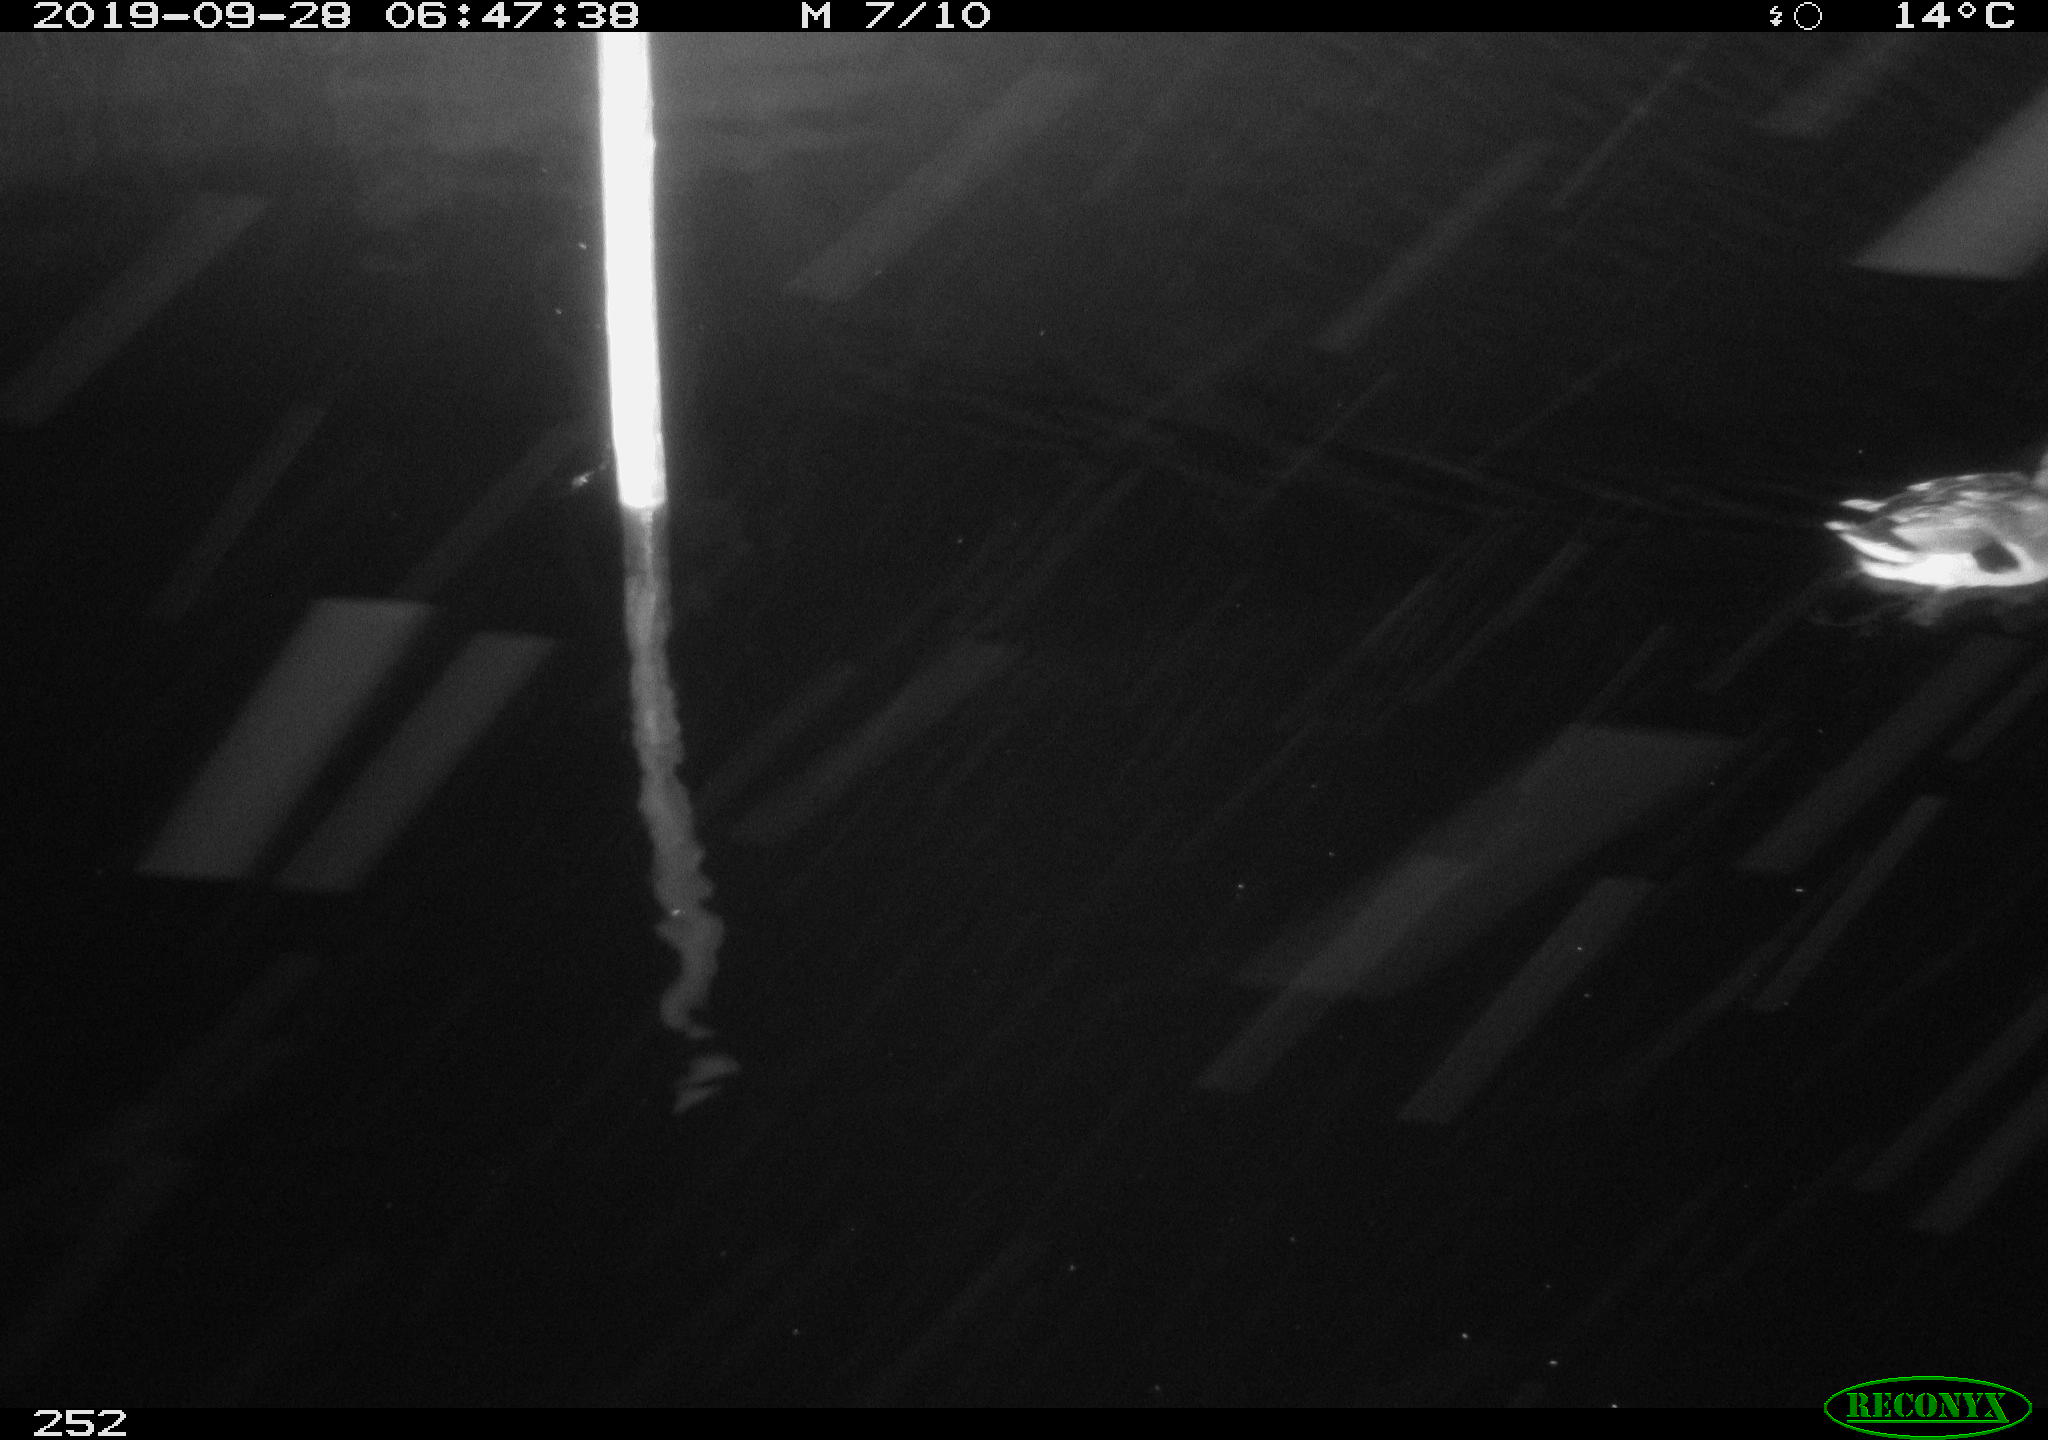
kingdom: Animalia
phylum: Chordata
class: Aves
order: Anseriformes
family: Anatidae
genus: Anas
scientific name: Anas platyrhynchos
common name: Mallard
